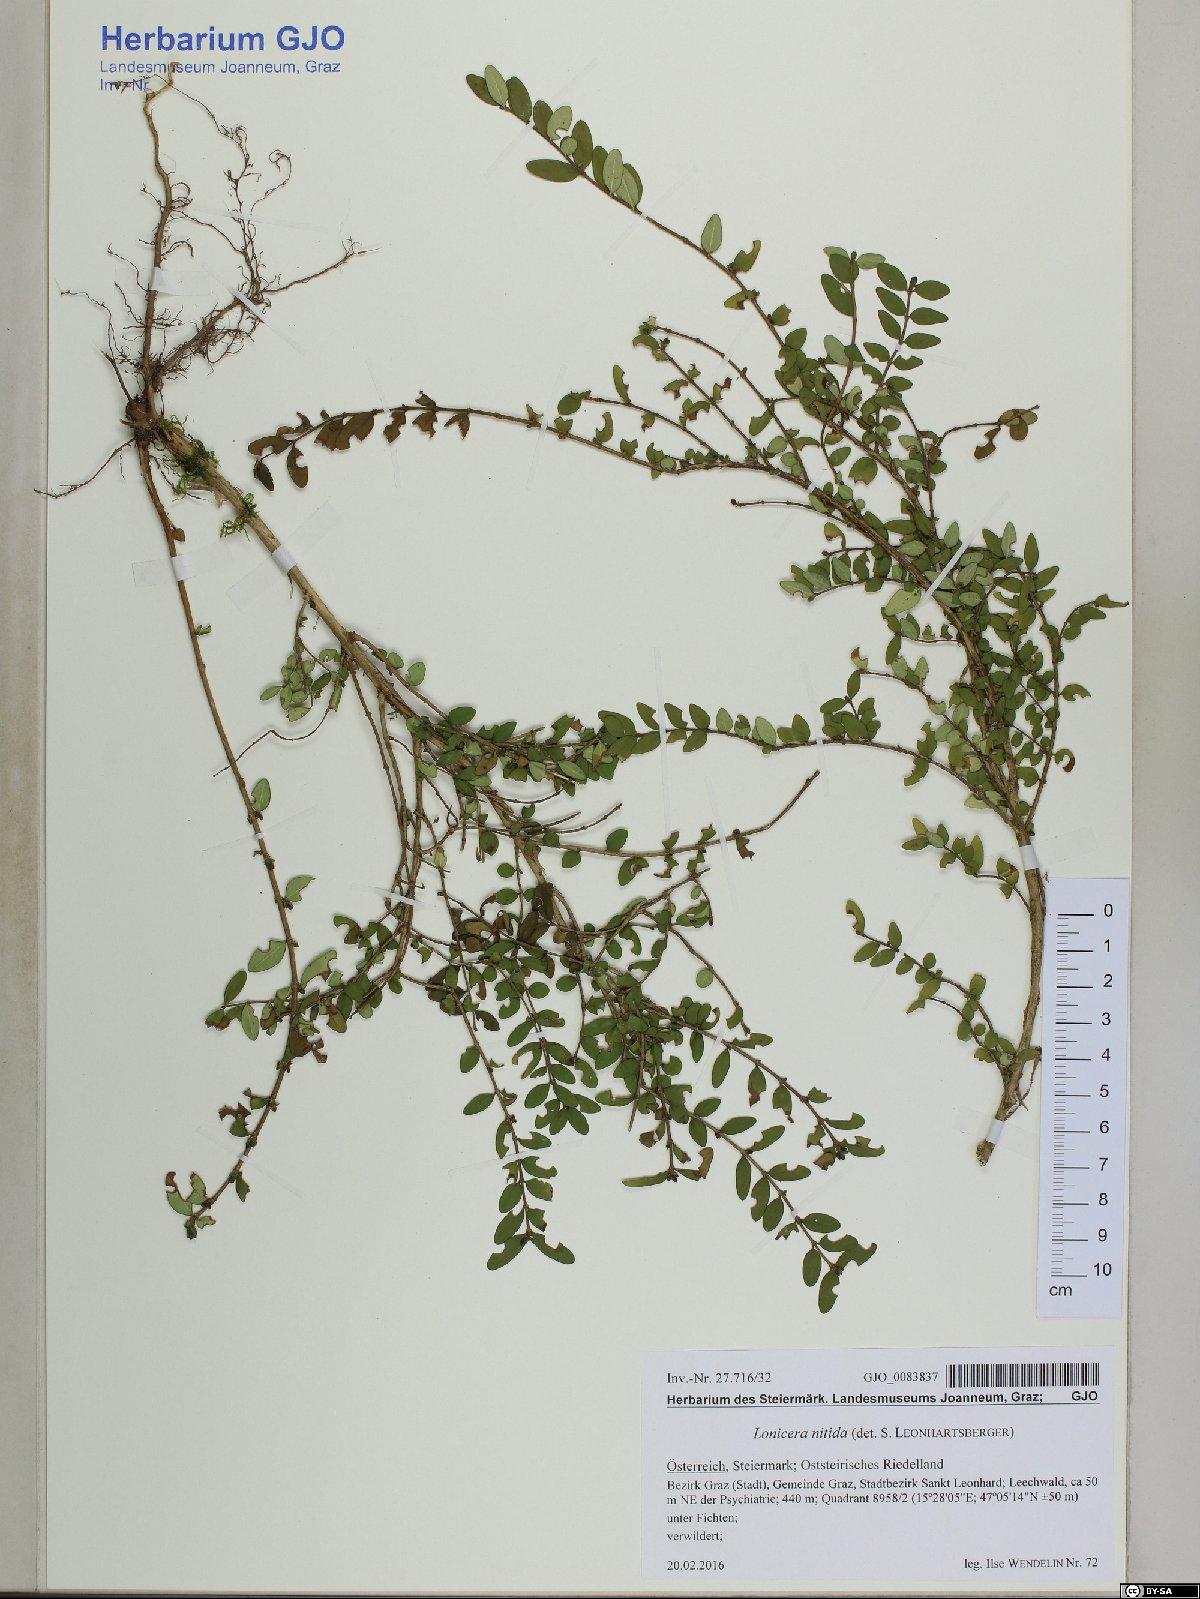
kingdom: Plantae
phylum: Tracheophyta
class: Magnoliopsida
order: Dipsacales
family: Caprifoliaceae
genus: Lonicera
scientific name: Lonicera pileata
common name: Box-leaved honeysuckle
